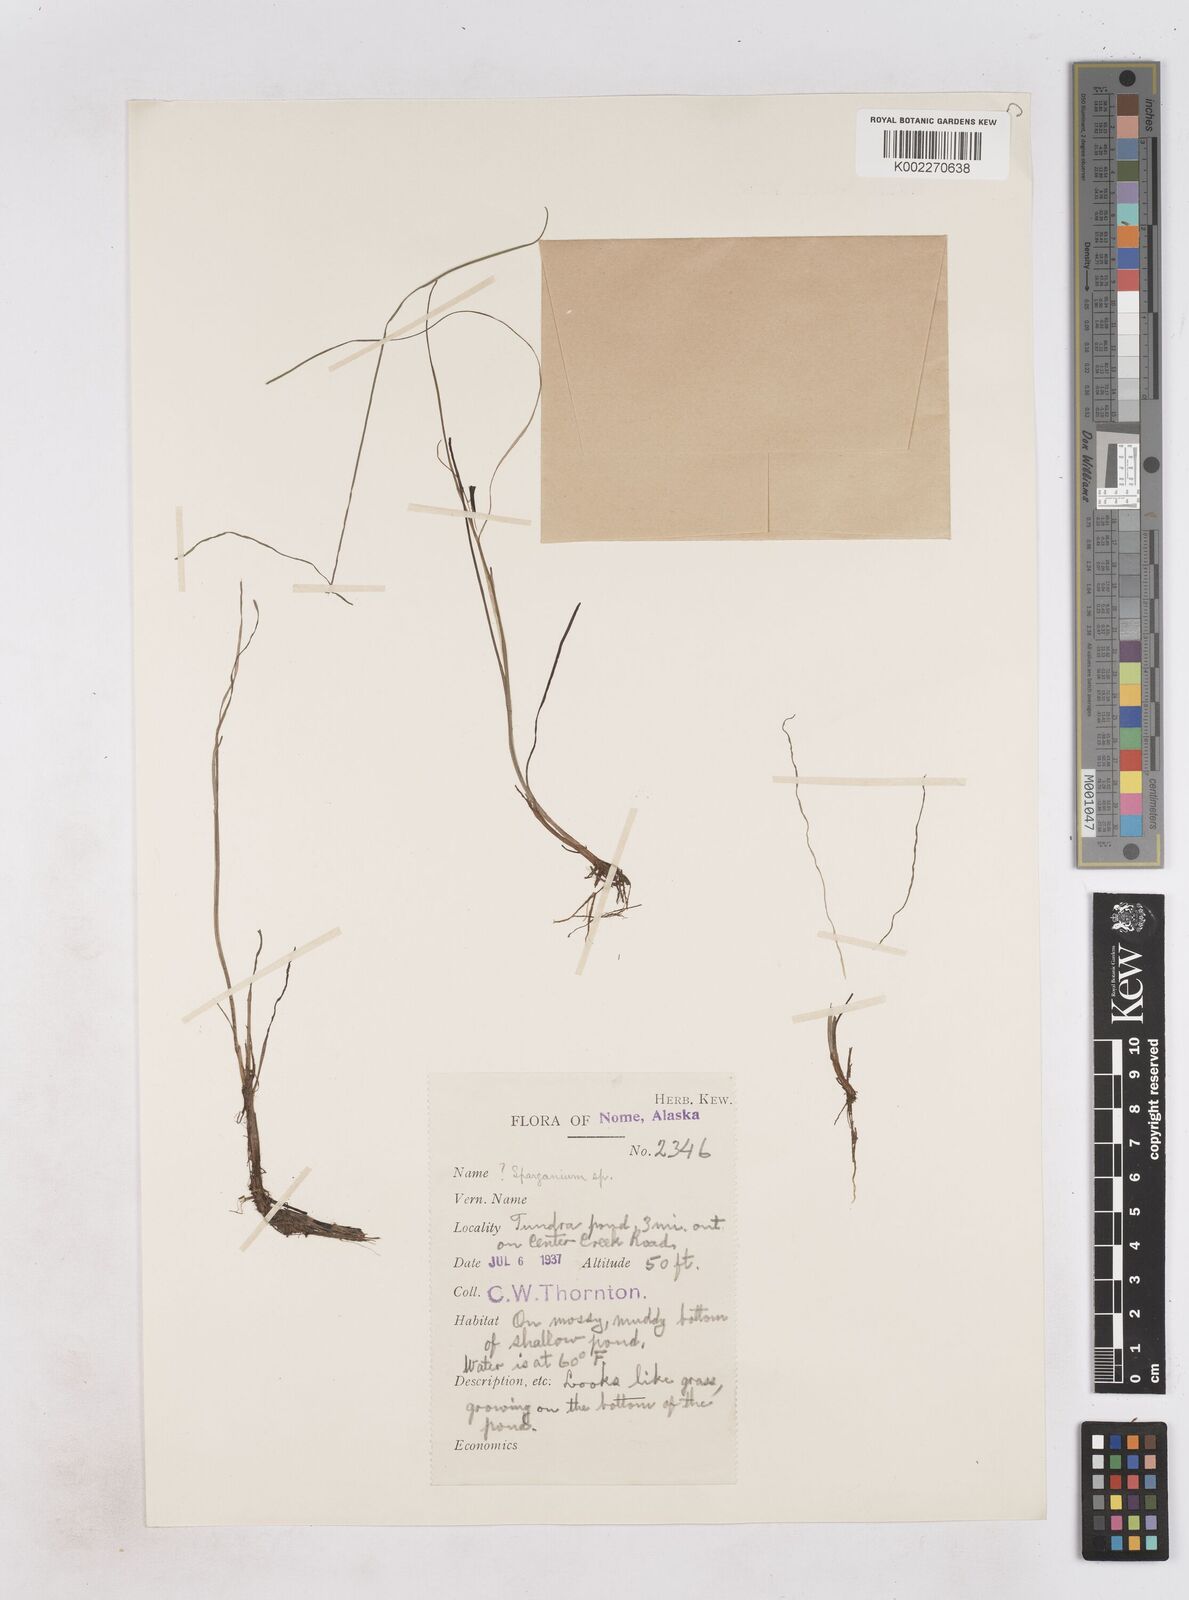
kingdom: Plantae
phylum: Tracheophyta
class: Liliopsida
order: Poales
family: Typhaceae
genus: Sparganium
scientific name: Sparganium hyperboreum
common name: Arctic burreed
